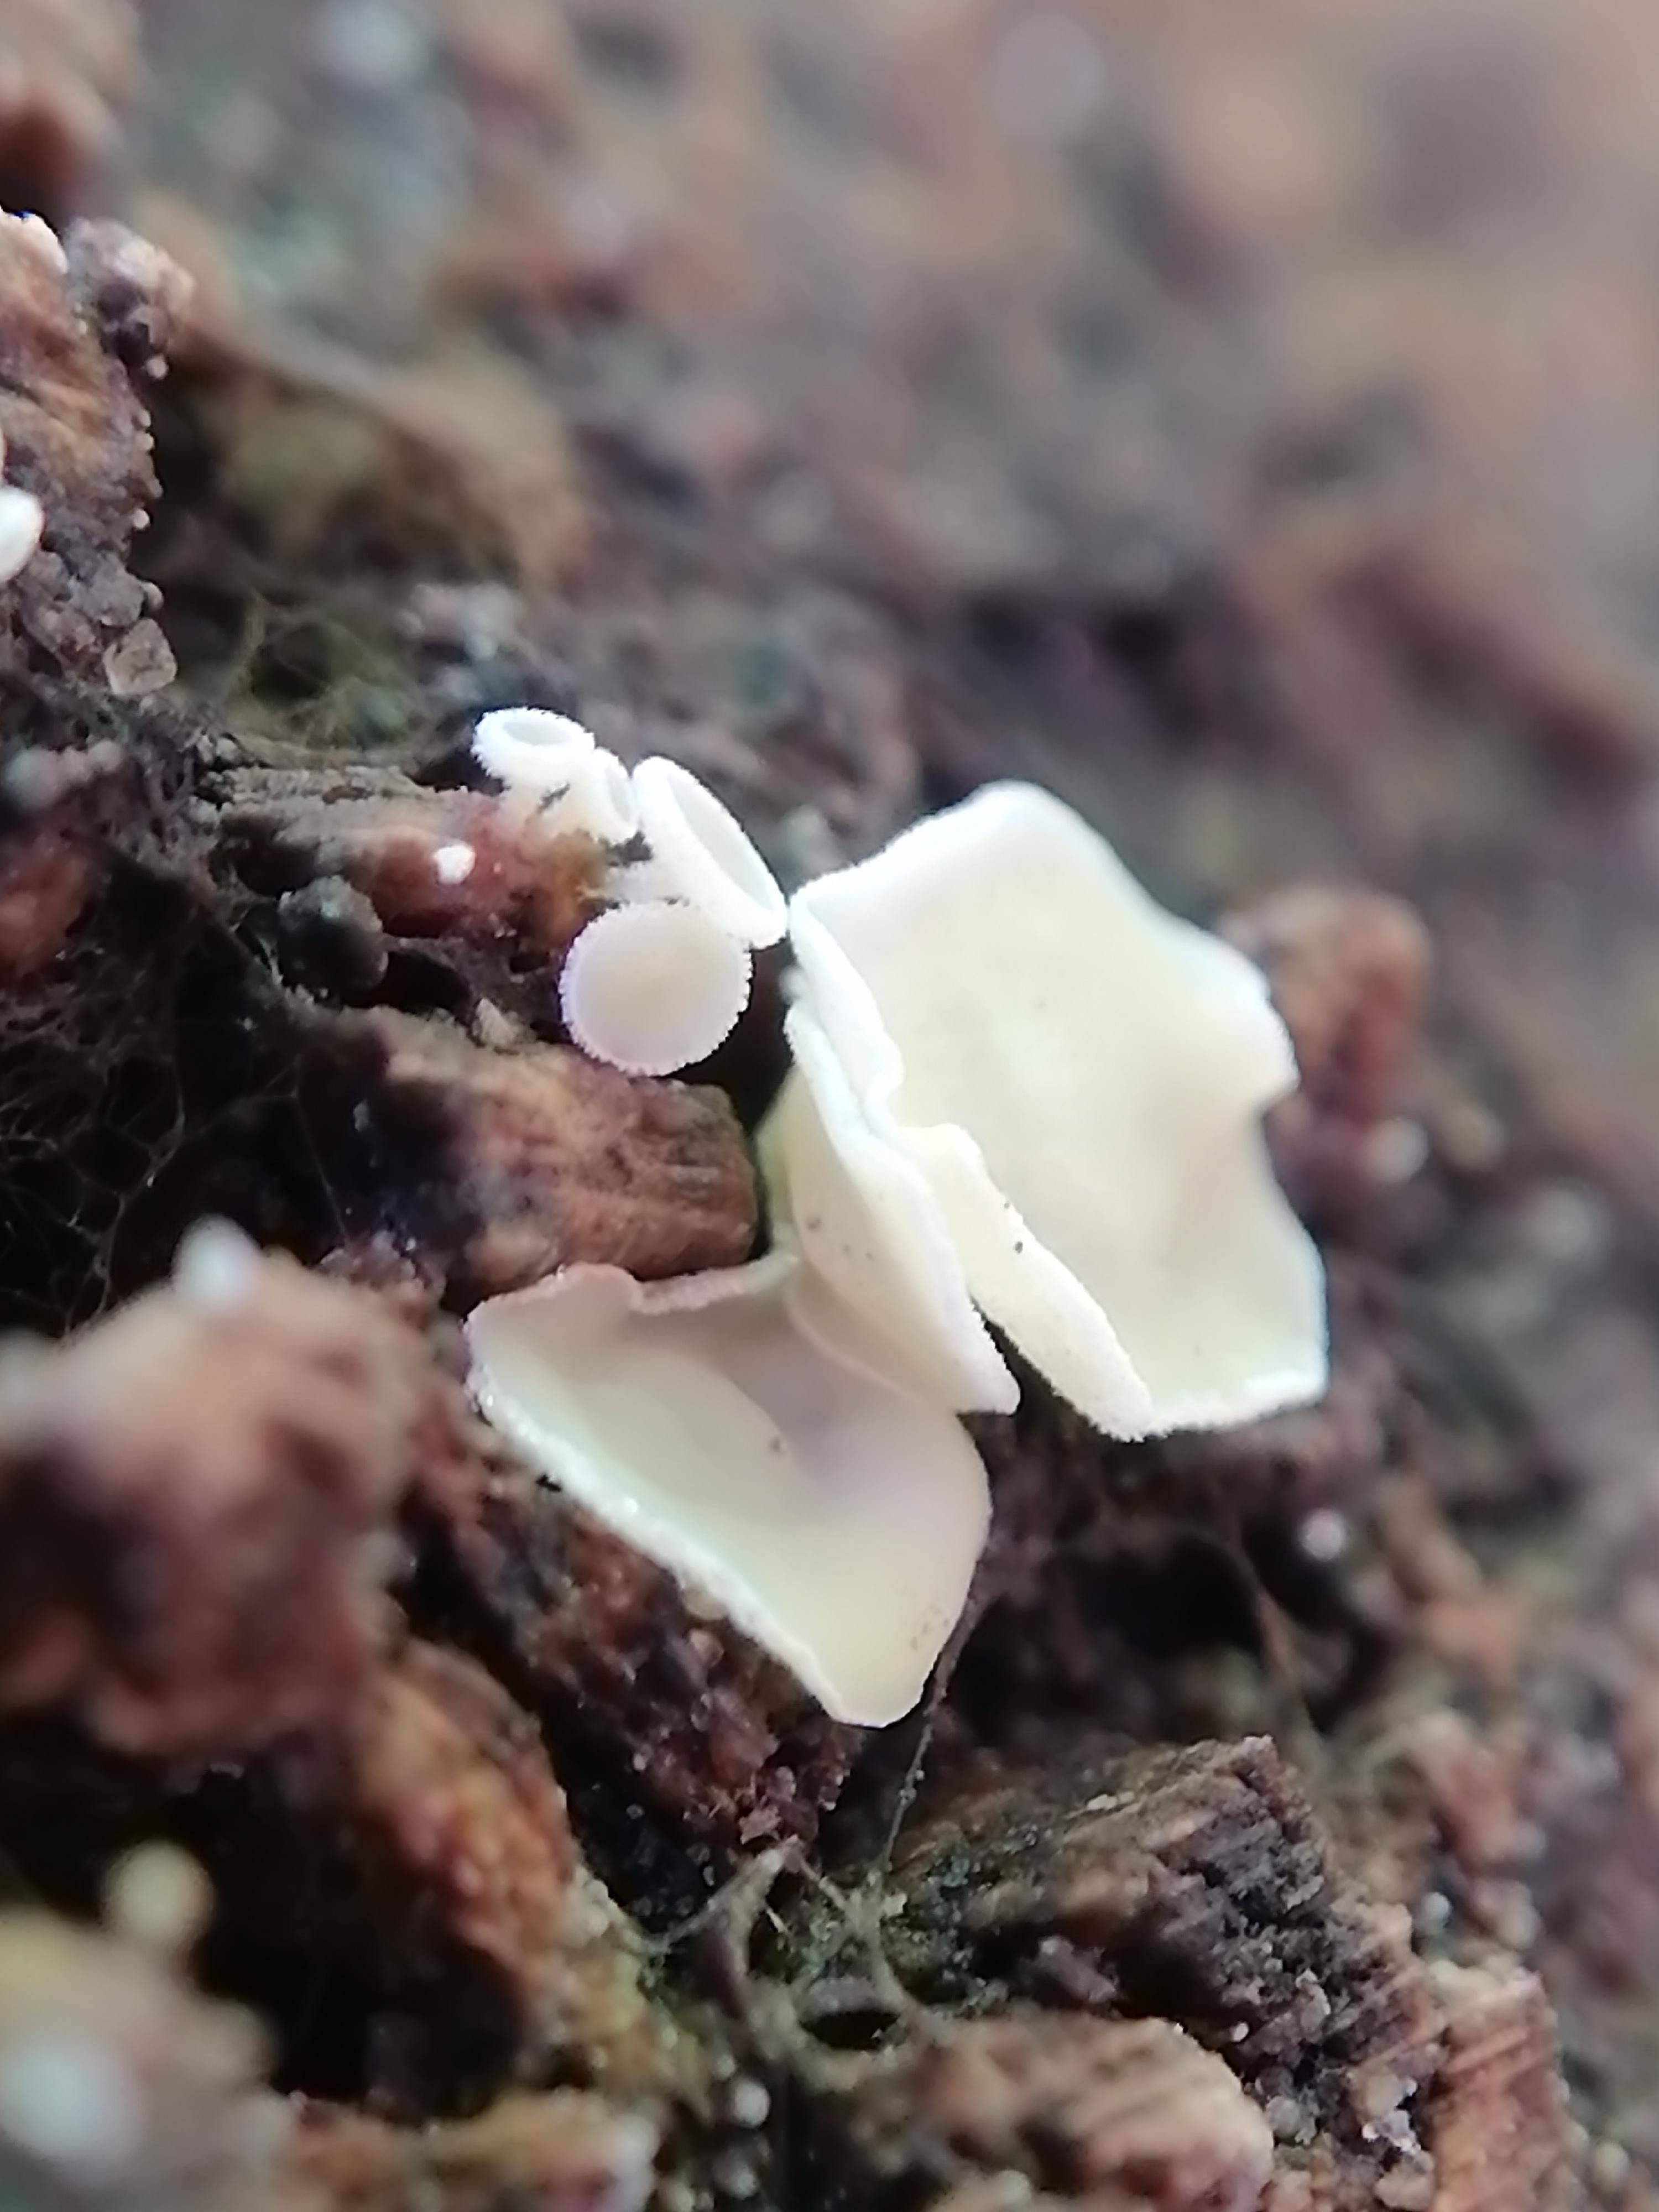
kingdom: Fungi
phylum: Ascomycota
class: Leotiomycetes
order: Helotiales
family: Lachnaceae
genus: Lachnum
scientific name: Lachnum
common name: frynseskive
